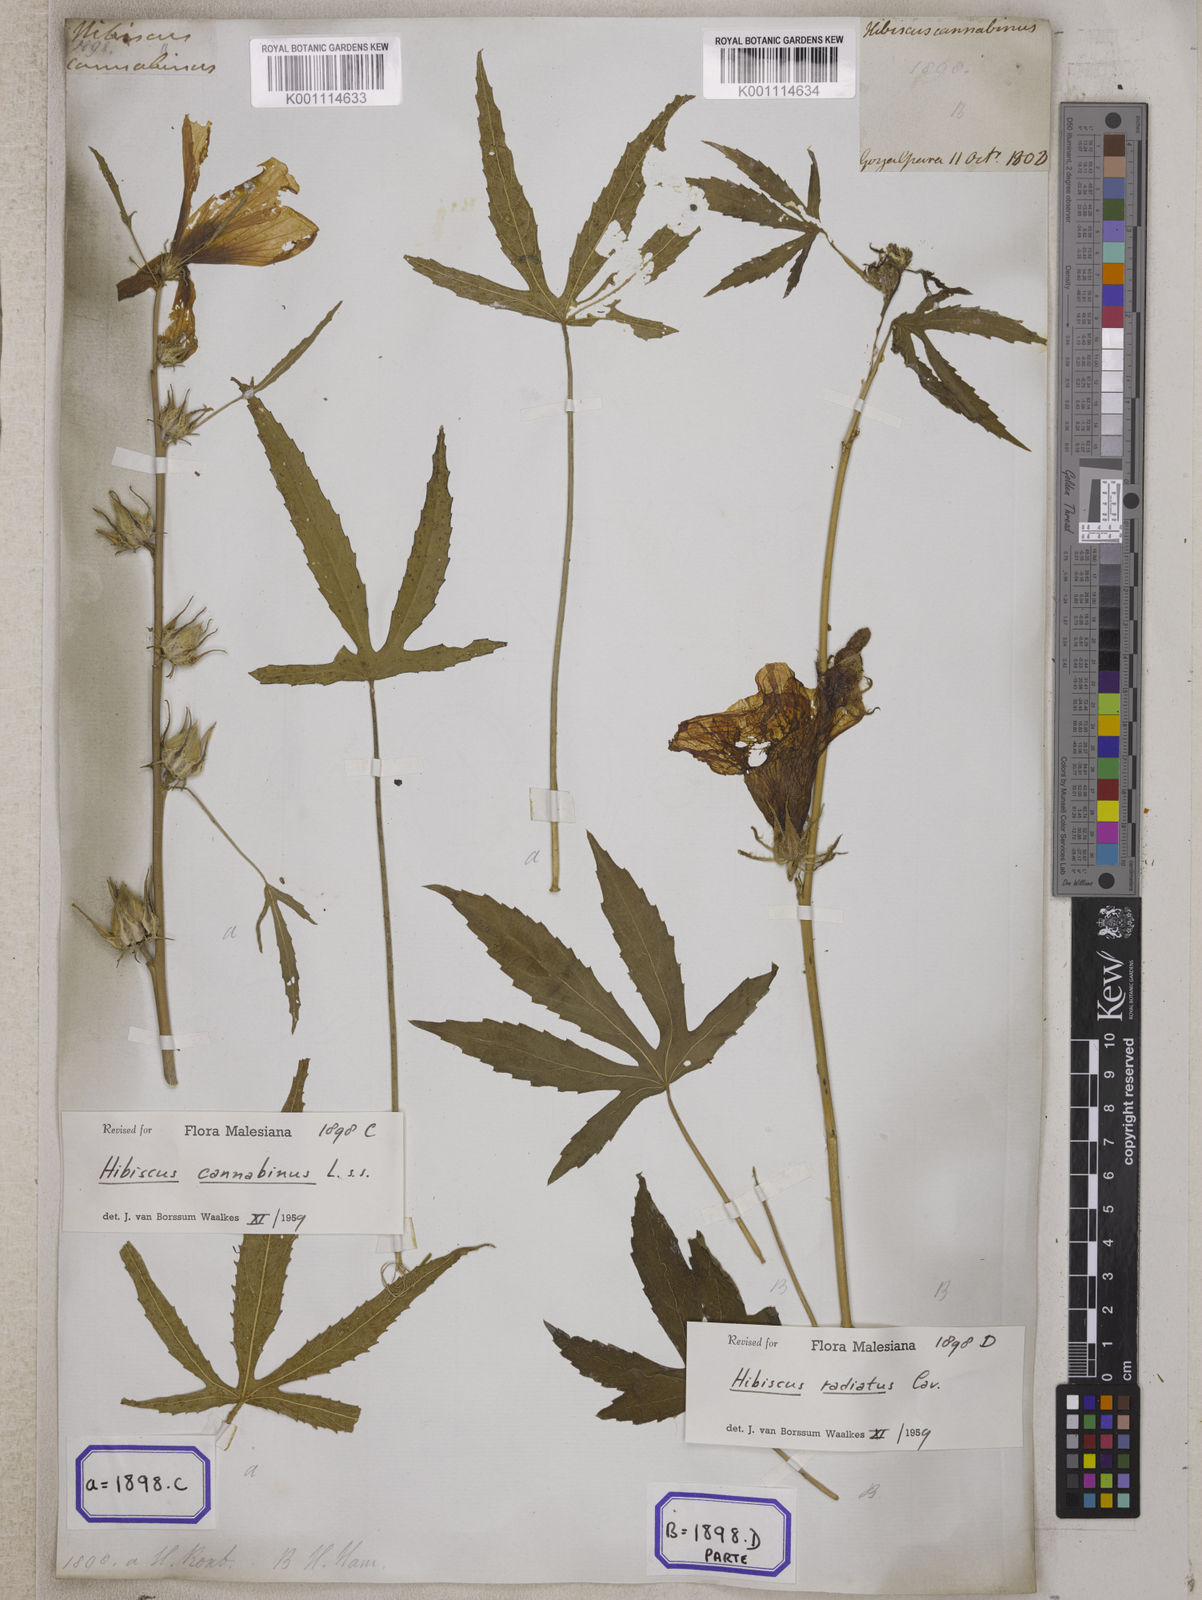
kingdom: Plantae
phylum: Tracheophyta
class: Magnoliopsida
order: Malvales
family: Malvaceae
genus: Hibiscus
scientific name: Hibiscus cannabinus
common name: Brown indianhemp
